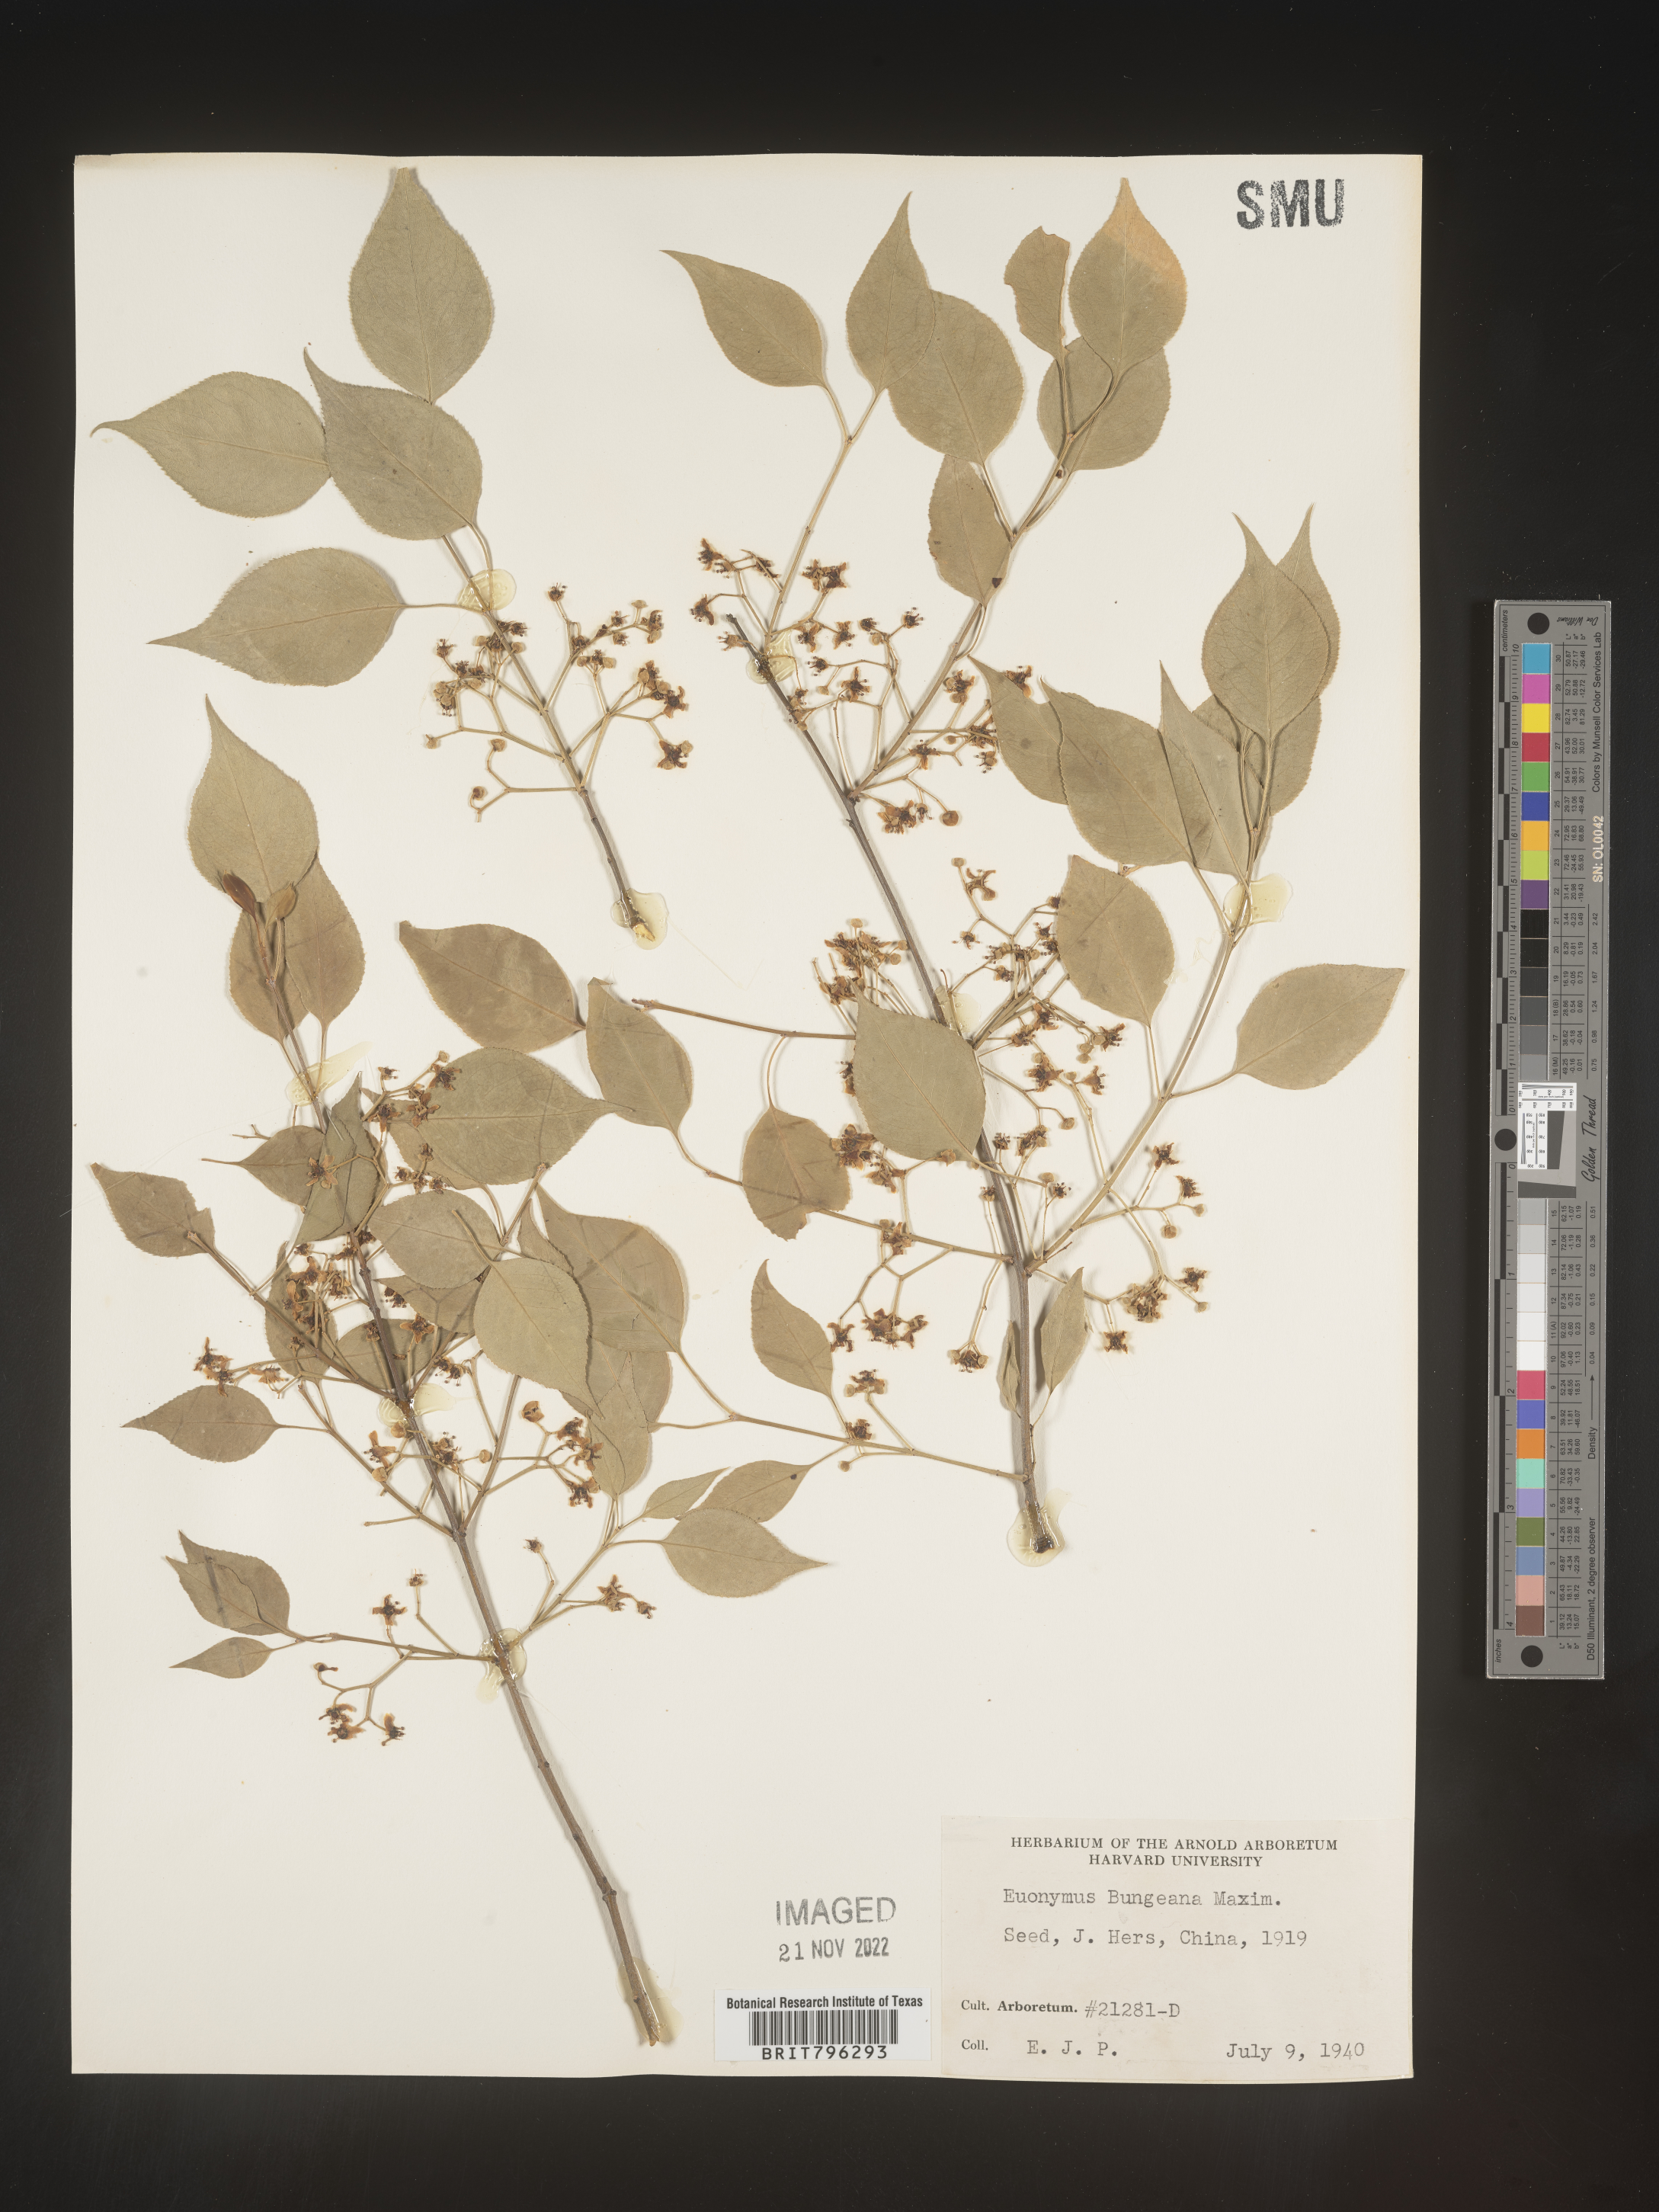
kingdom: Plantae
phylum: Tracheophyta
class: Magnoliopsida
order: Celastrales
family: Celastraceae
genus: Euonymus
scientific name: Euonymus
